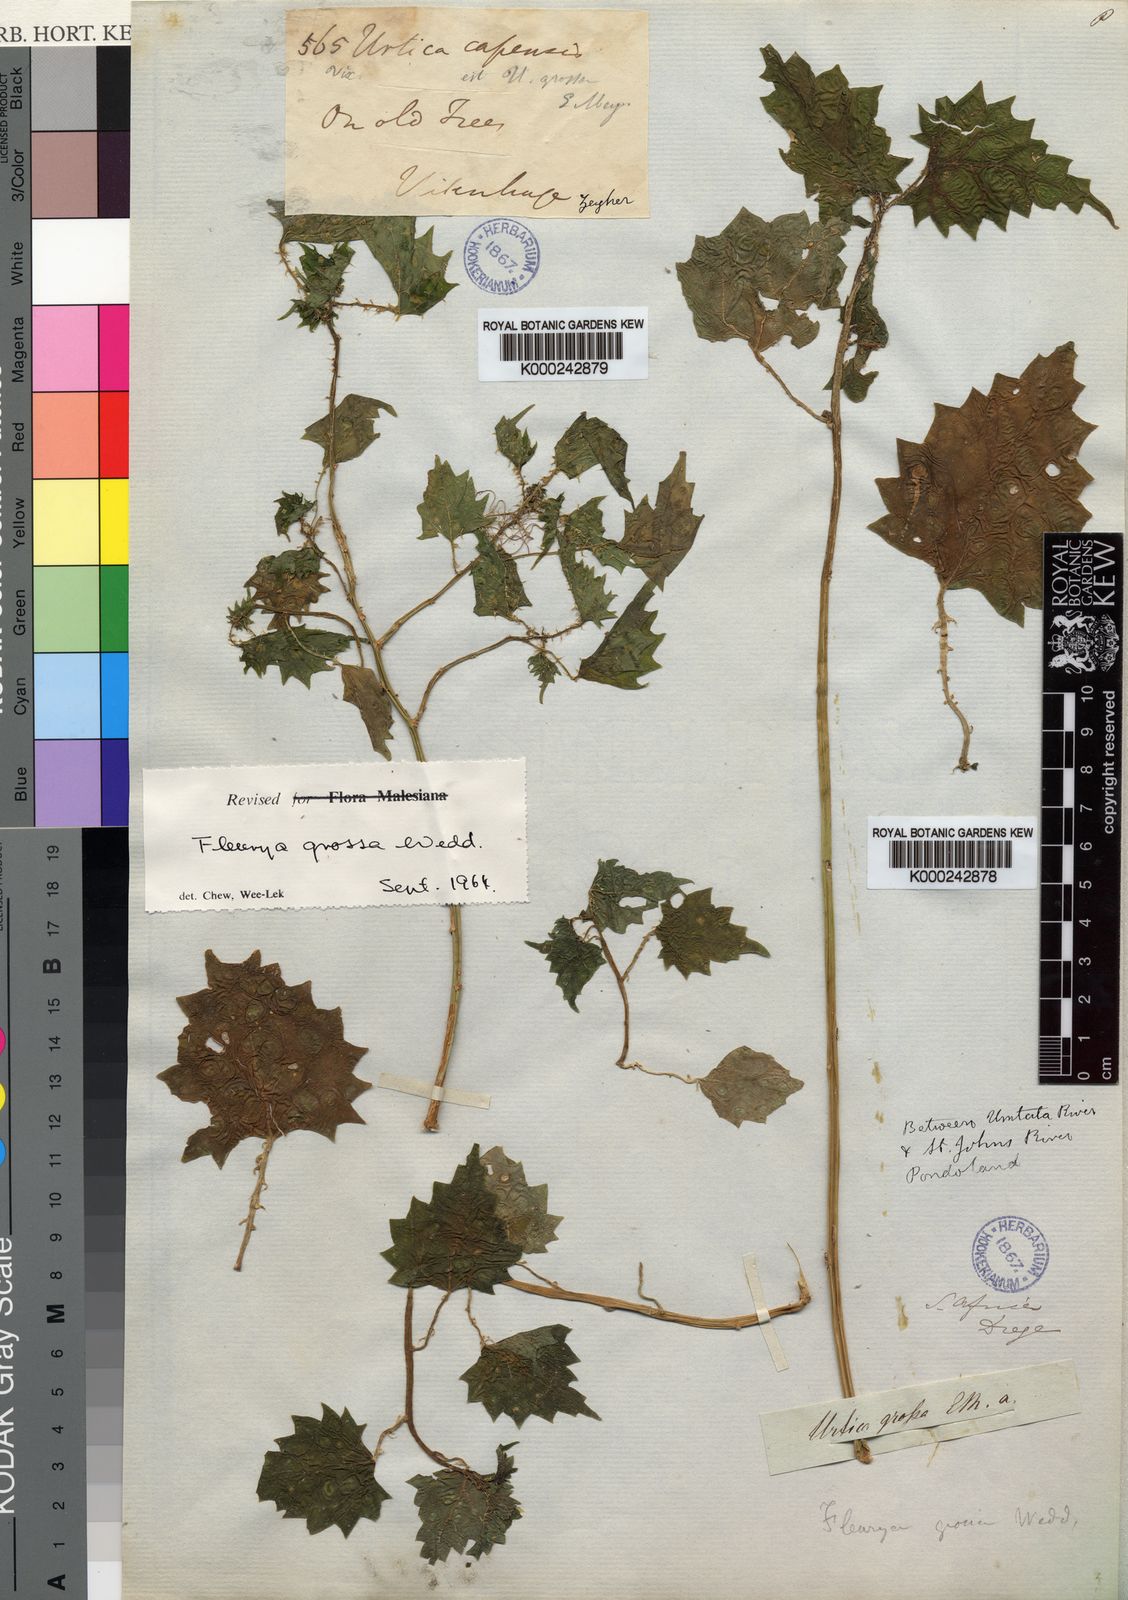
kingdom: Plantae
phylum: Tracheophyta
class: Magnoliopsida
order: Rosales
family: Urticaceae
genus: Laportea
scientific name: Laportea grossa
